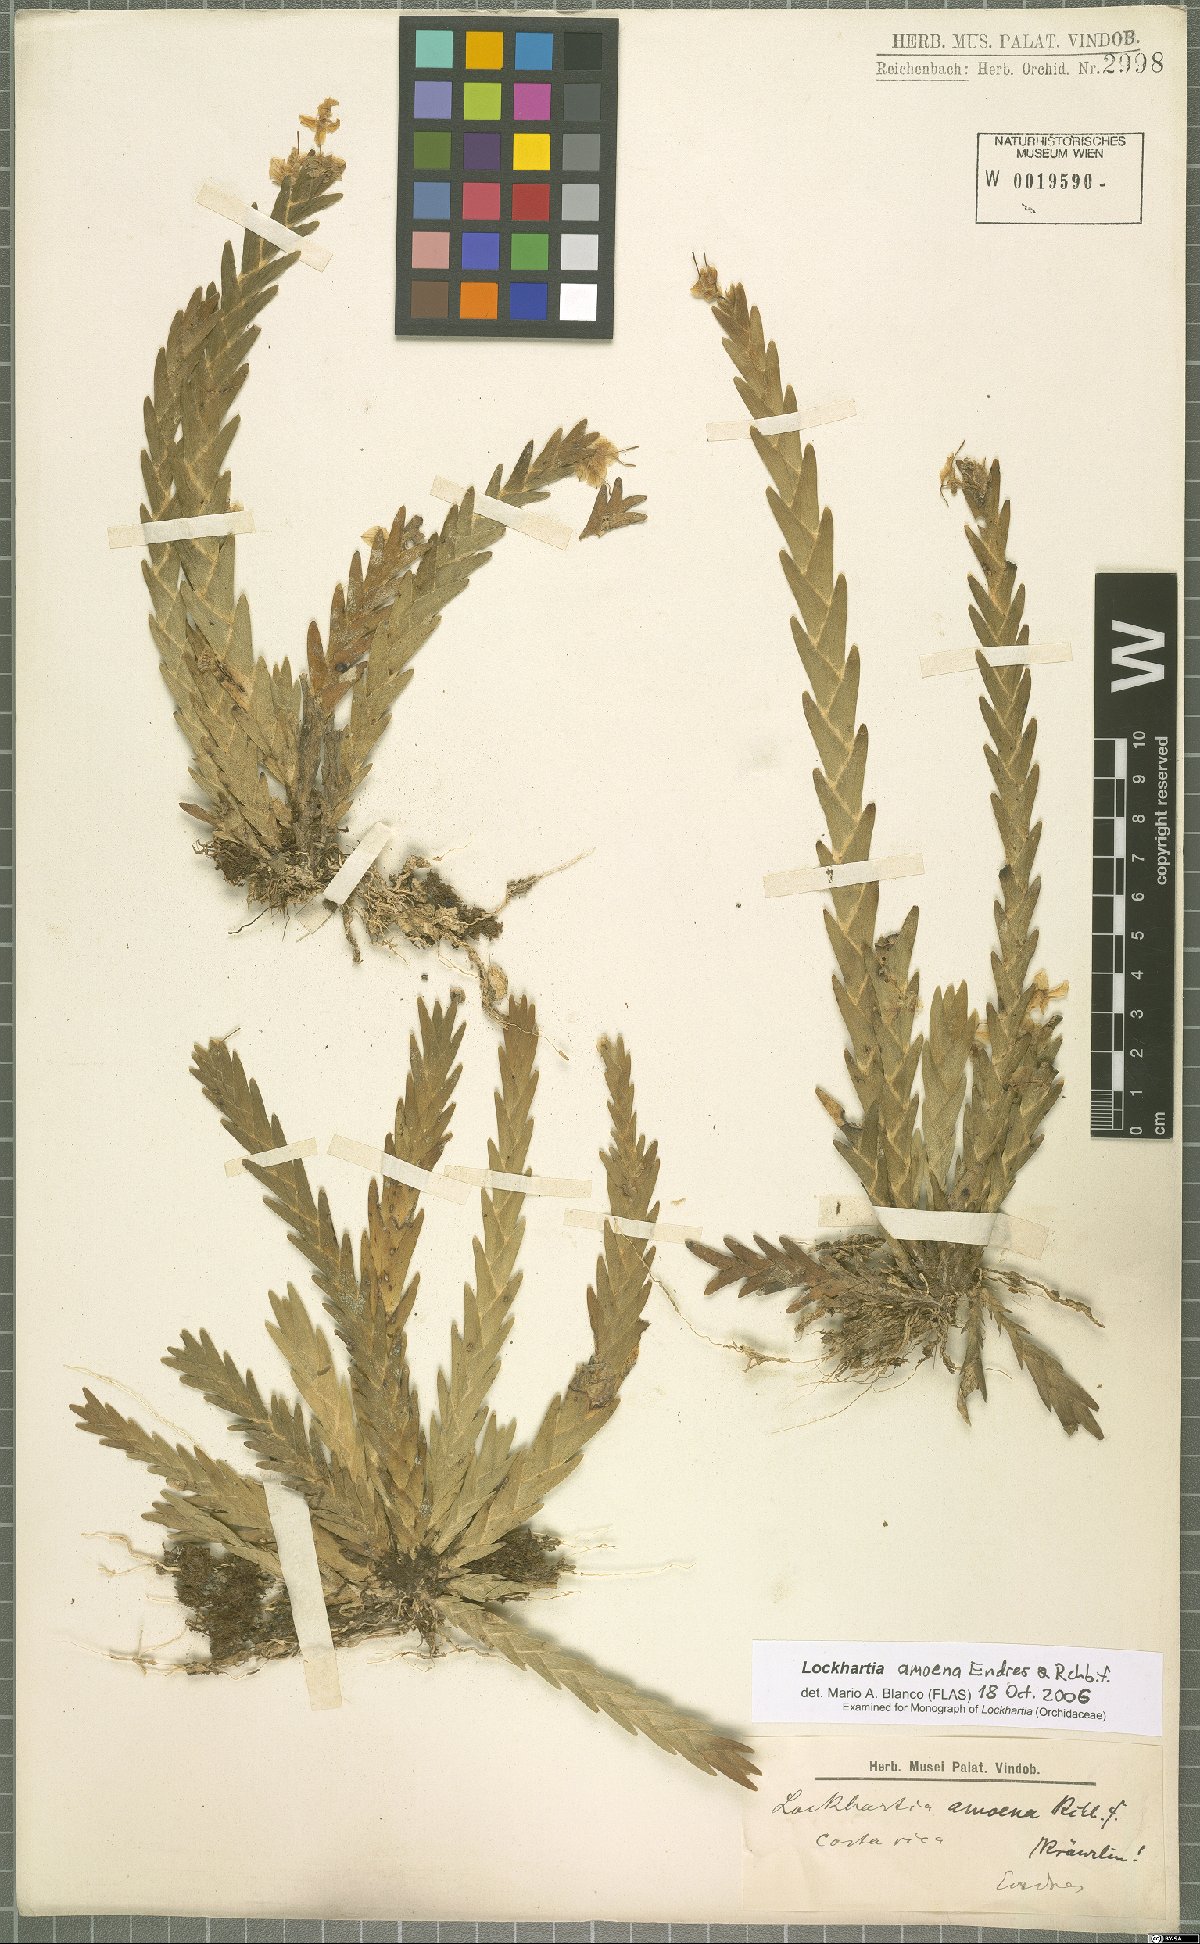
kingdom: Plantae
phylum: Tracheophyta
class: Liliopsida
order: Asparagales
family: Orchidaceae
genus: Lockhartia
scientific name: Lockhartia amoena
